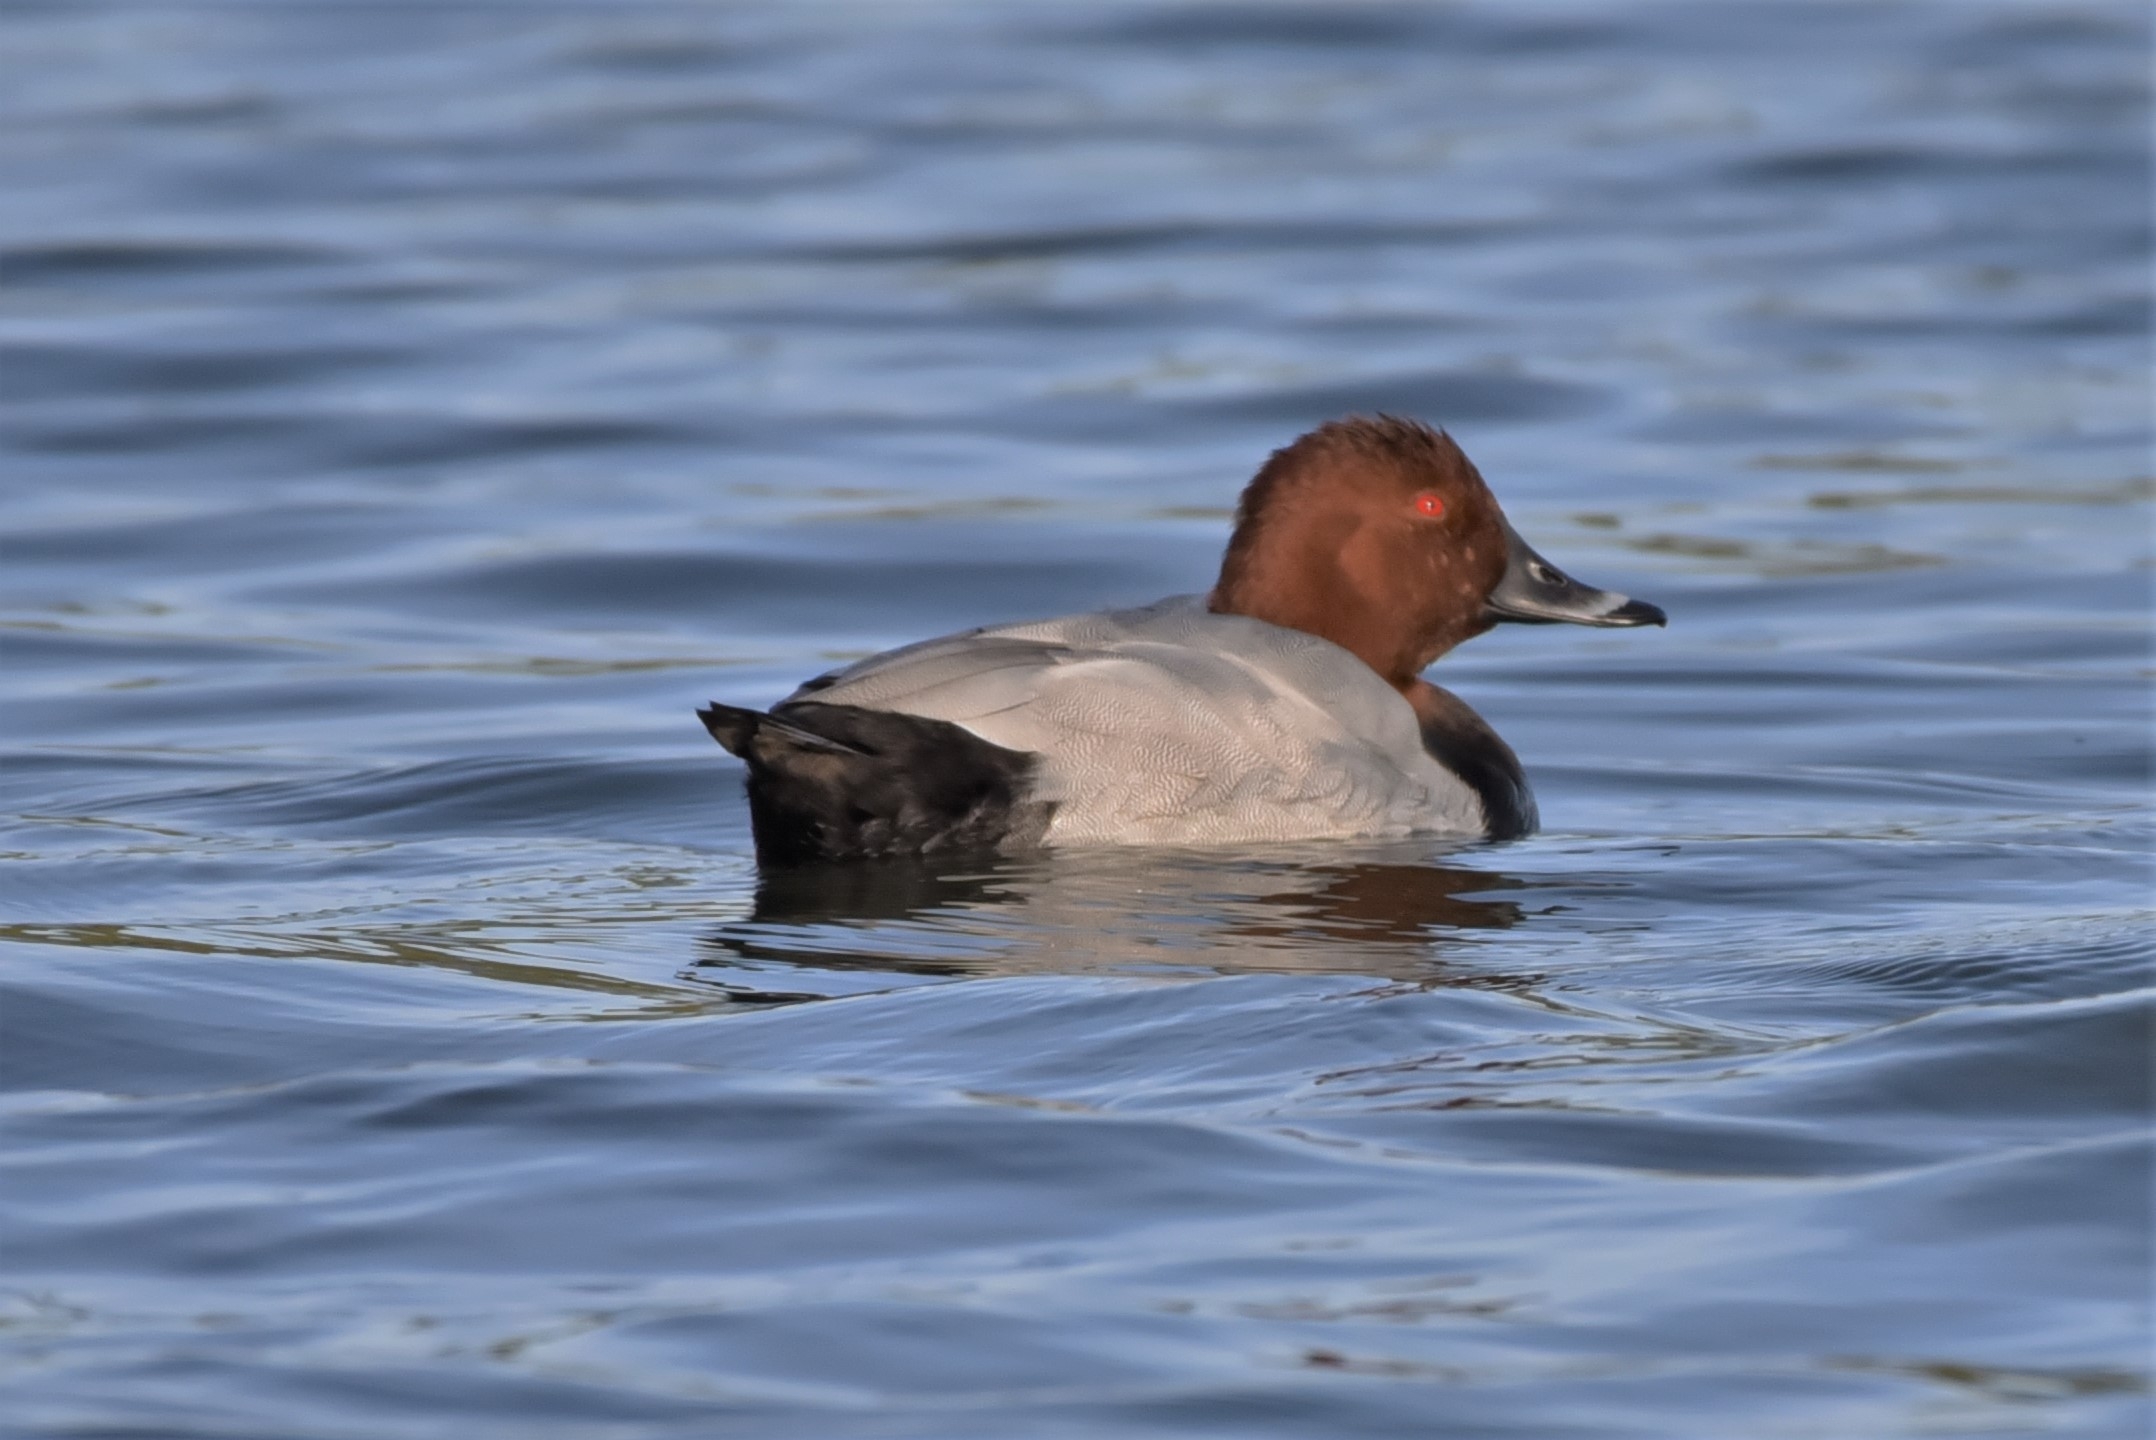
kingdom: Animalia
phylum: Chordata
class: Aves
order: Anseriformes
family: Anatidae
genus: Aythya
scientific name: Aythya ferina
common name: Taffeland
